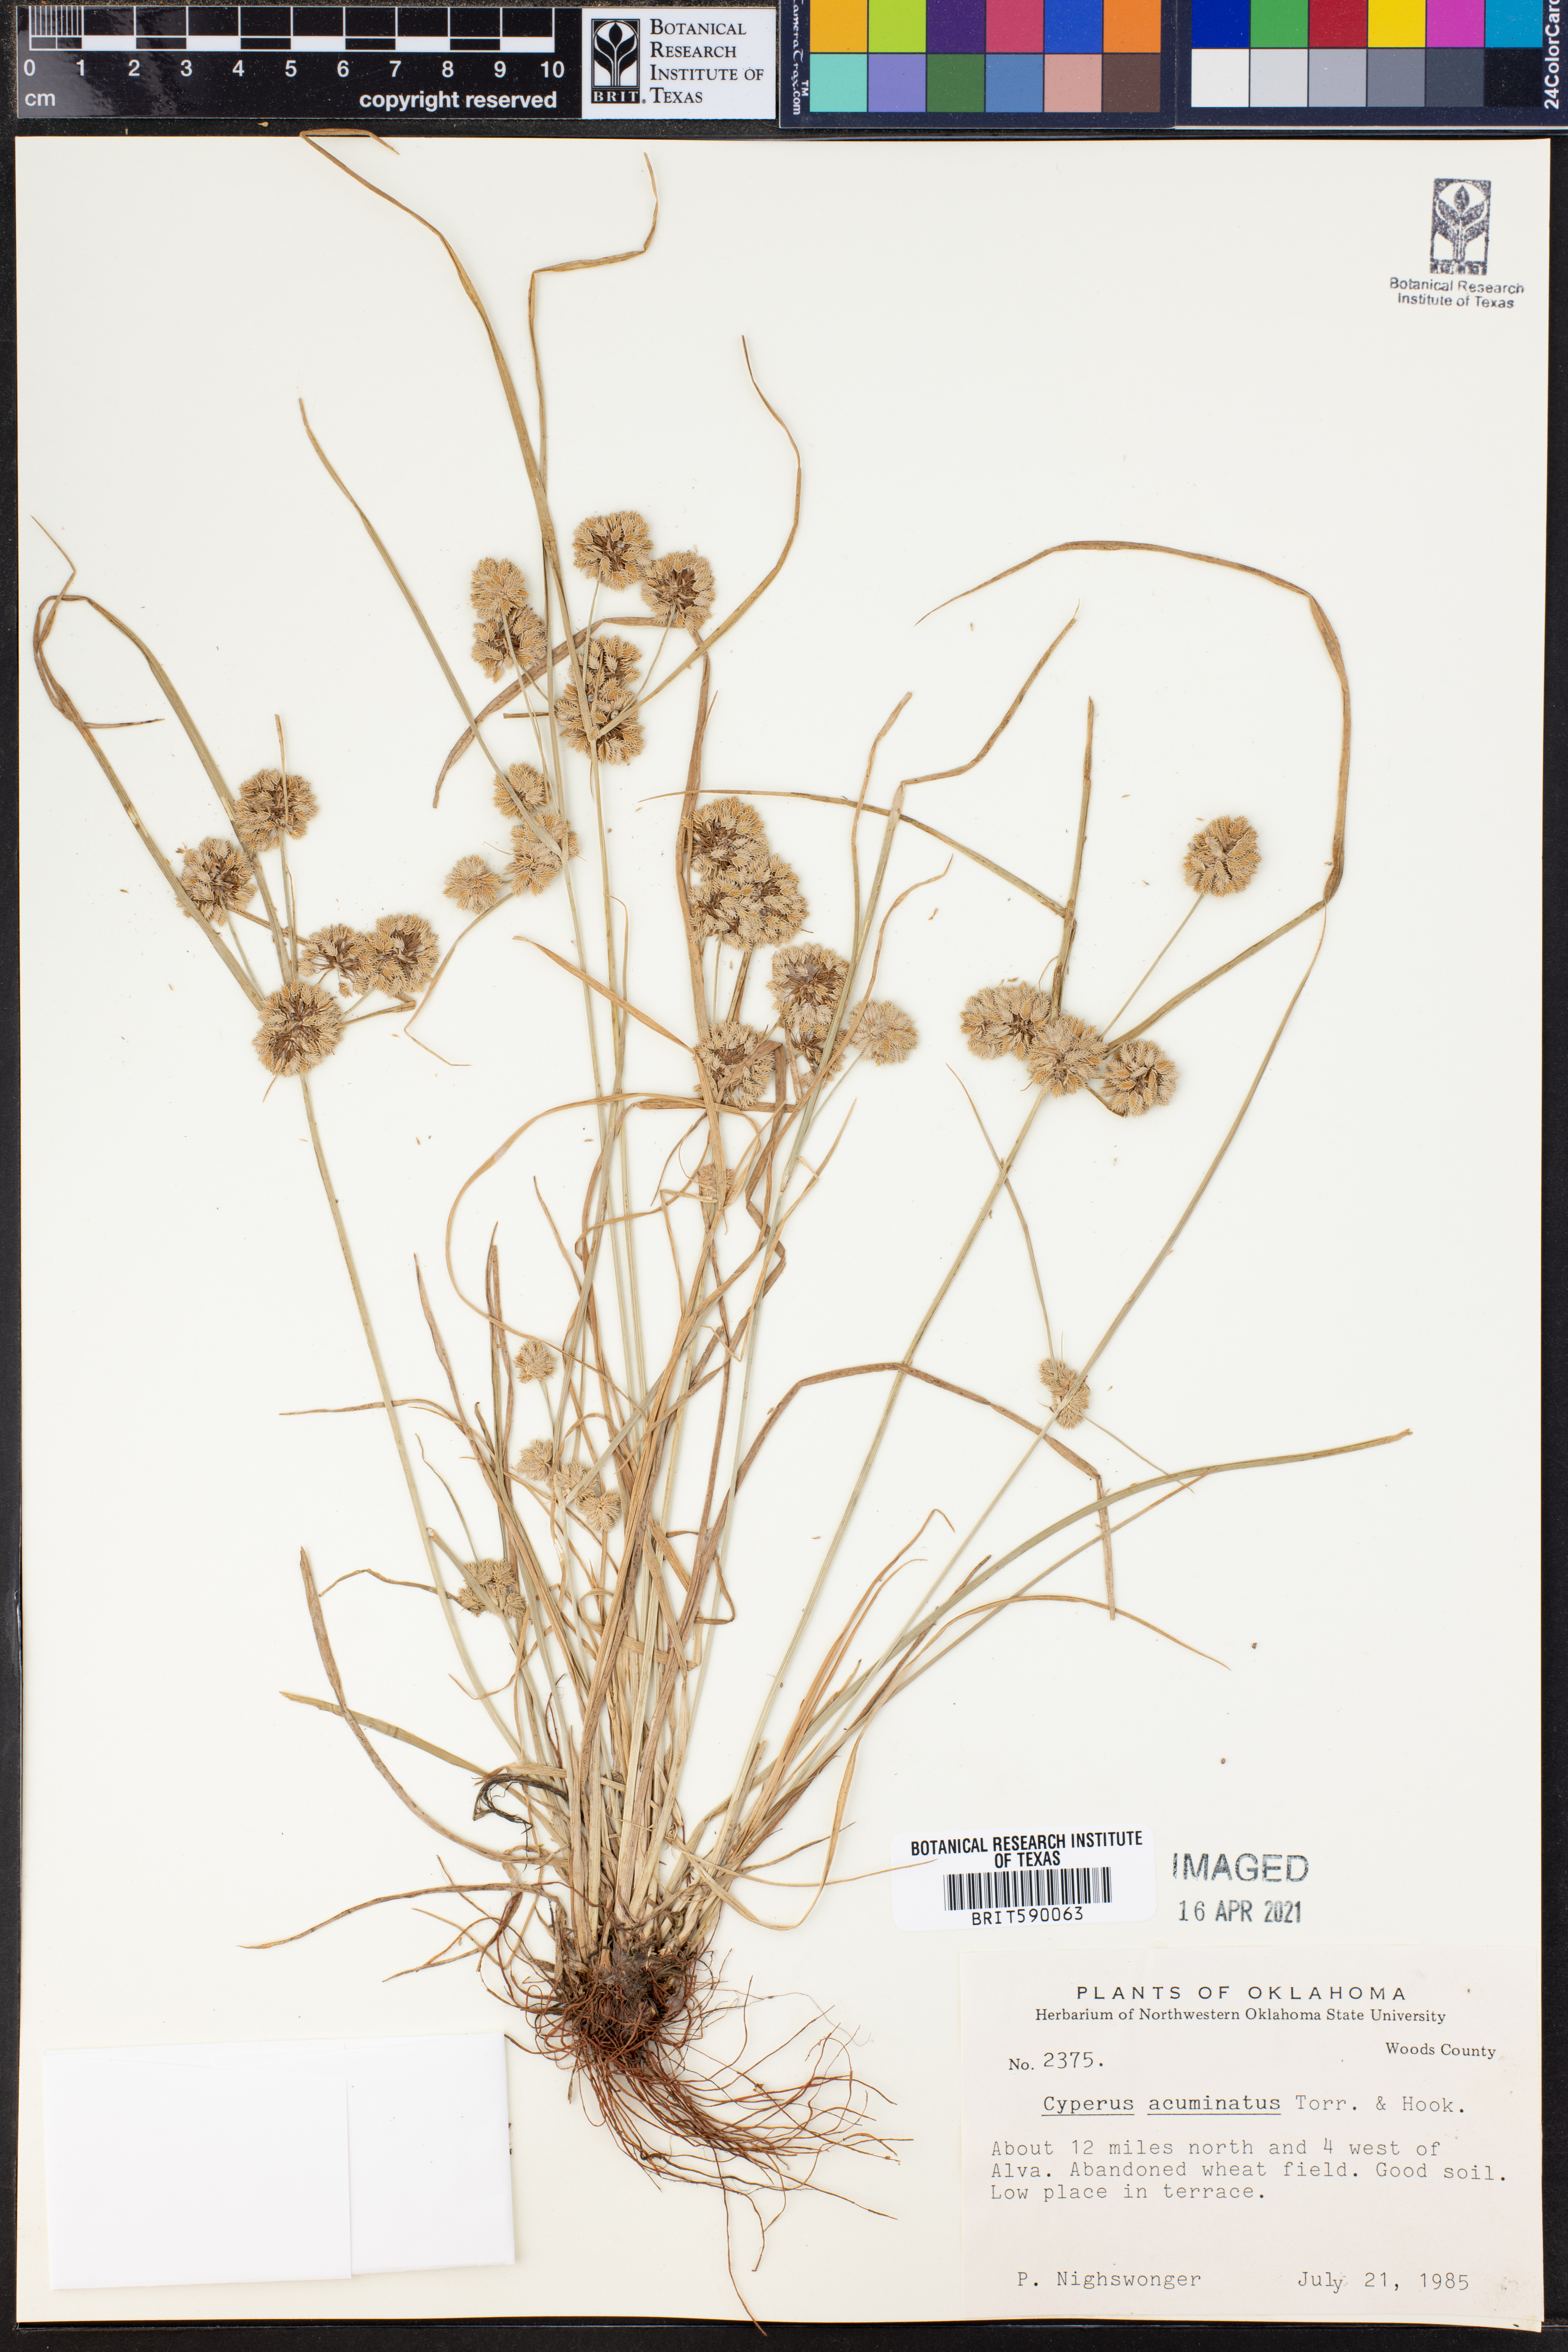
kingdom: Plantae
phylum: Tracheophyta
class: Liliopsida
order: Poales
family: Cyperaceae
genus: Cyperus
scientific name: Cyperus acuminatus
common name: Short-pointed cyperus
